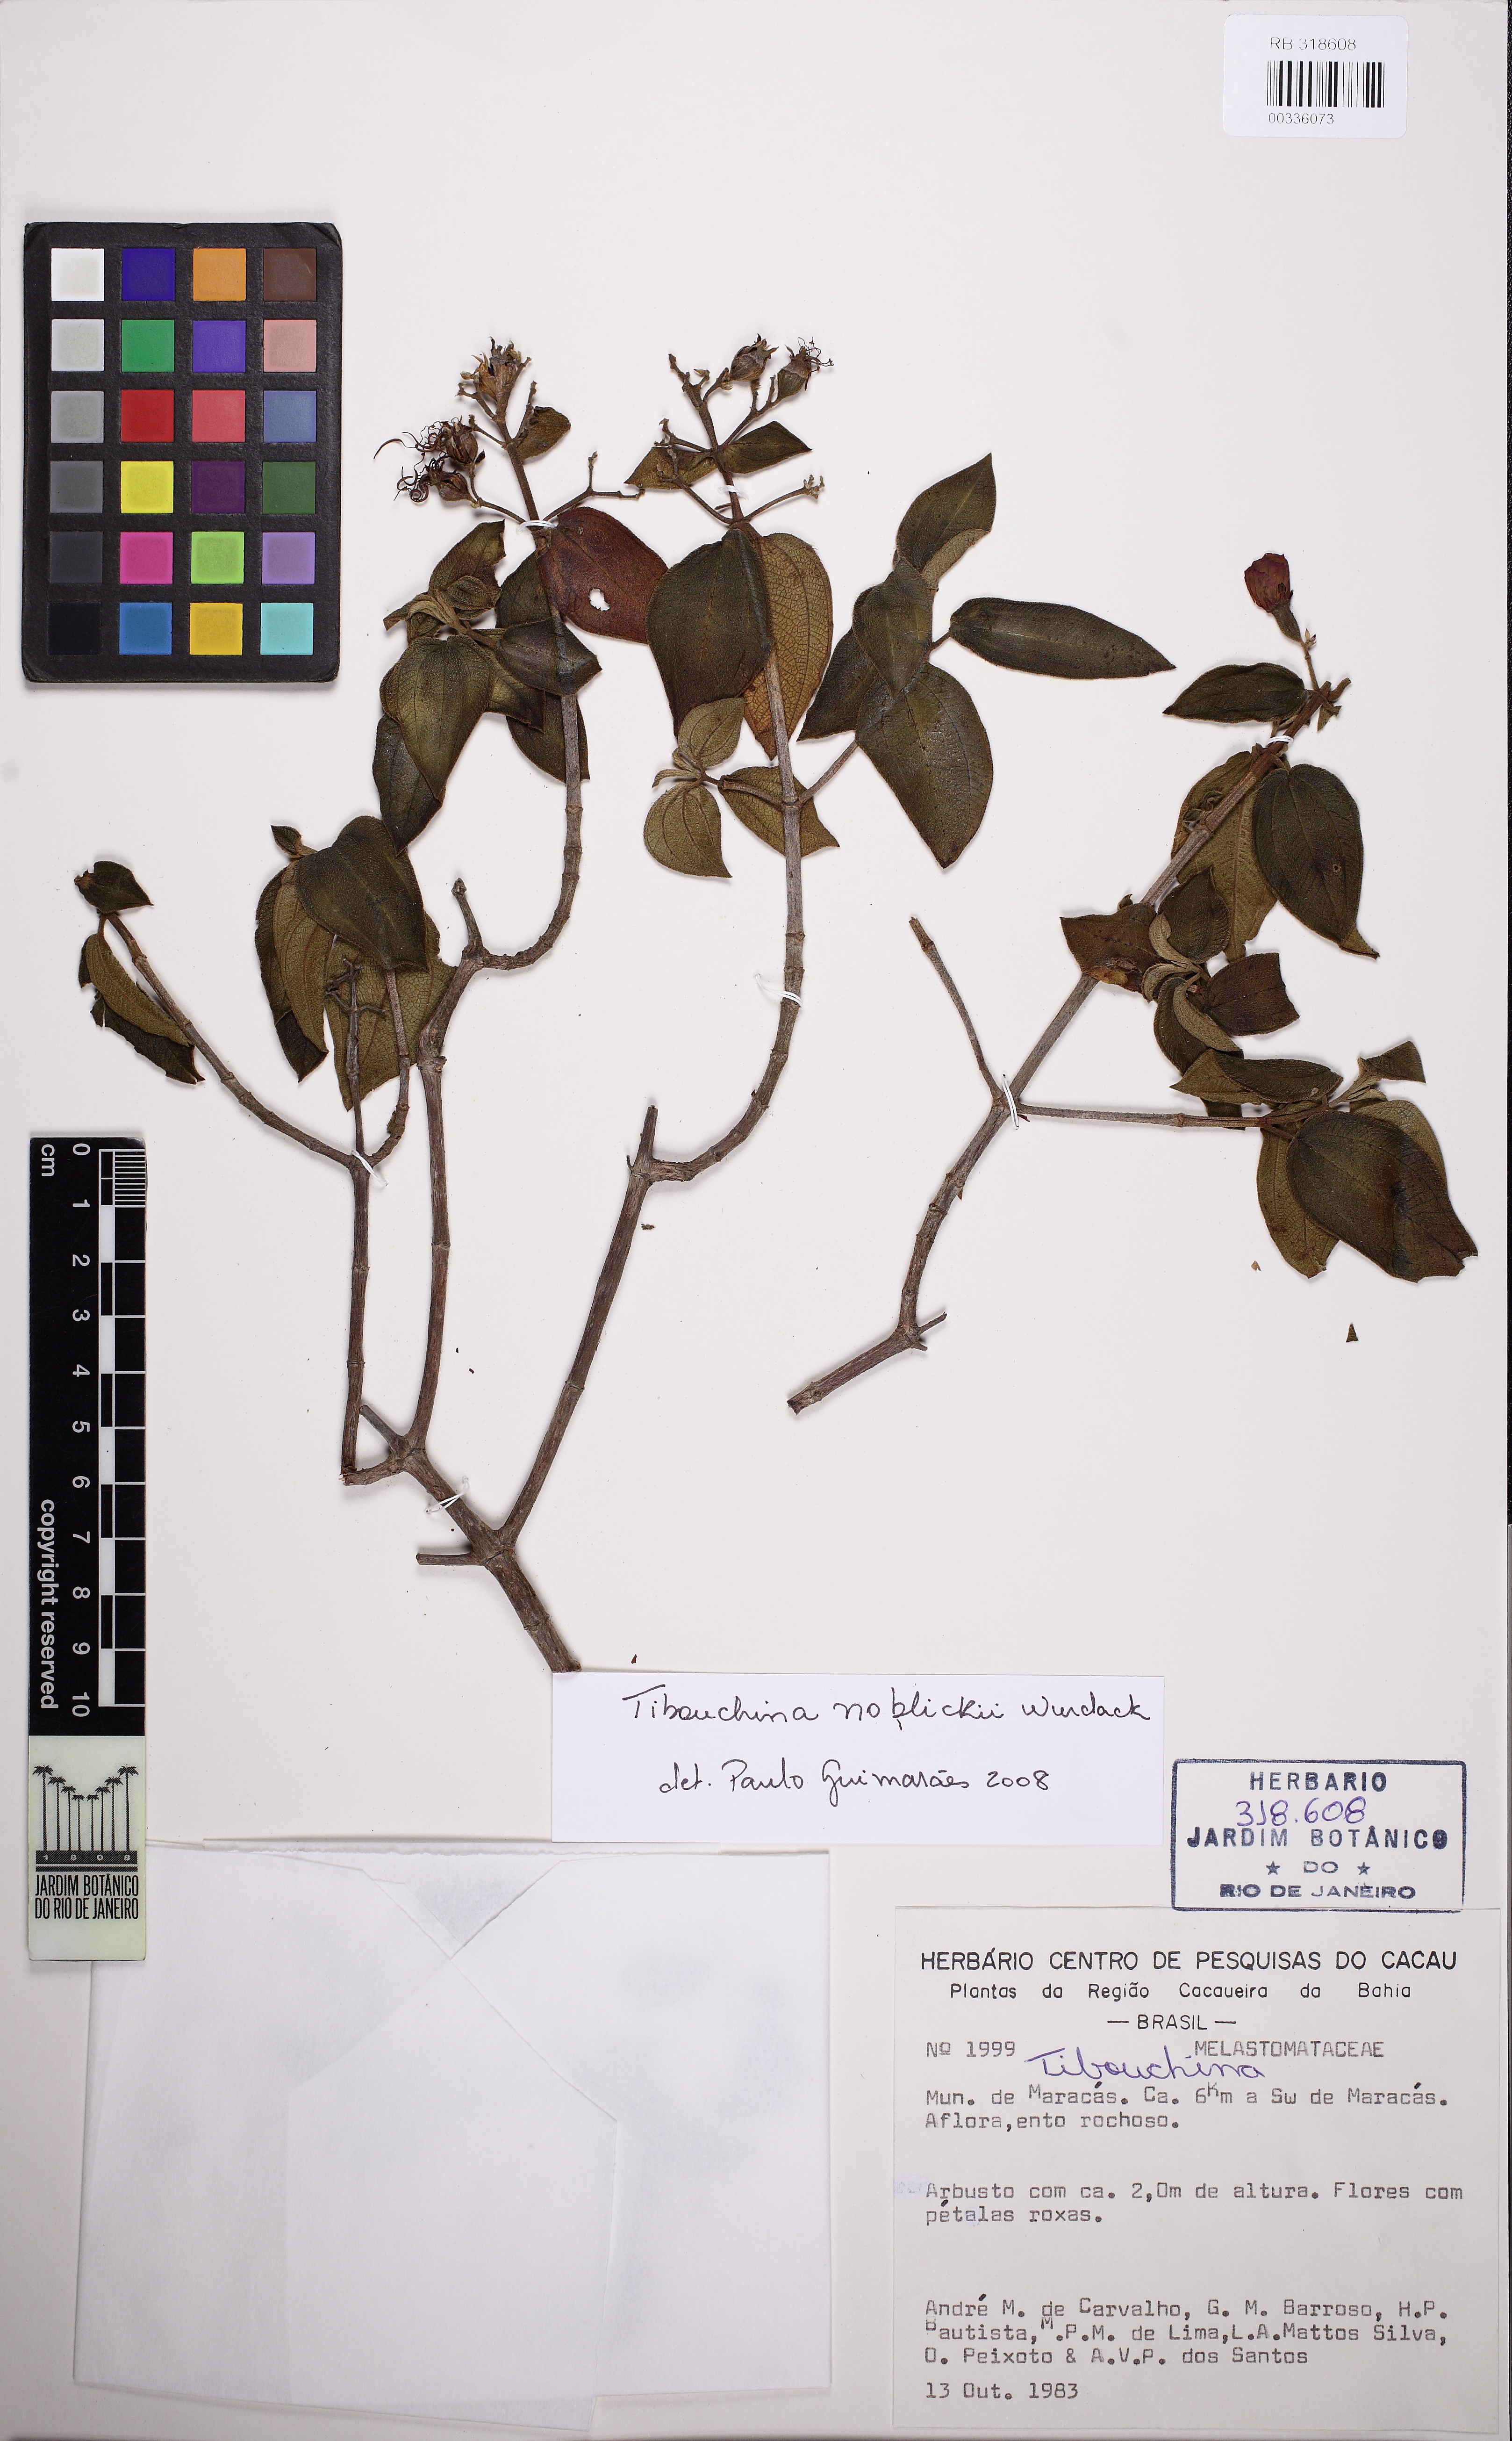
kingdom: Plantae
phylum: Tracheophyta
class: Magnoliopsida
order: Myrtales
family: Melastomataceae
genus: Pleroma
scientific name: Pleroma noblickii
